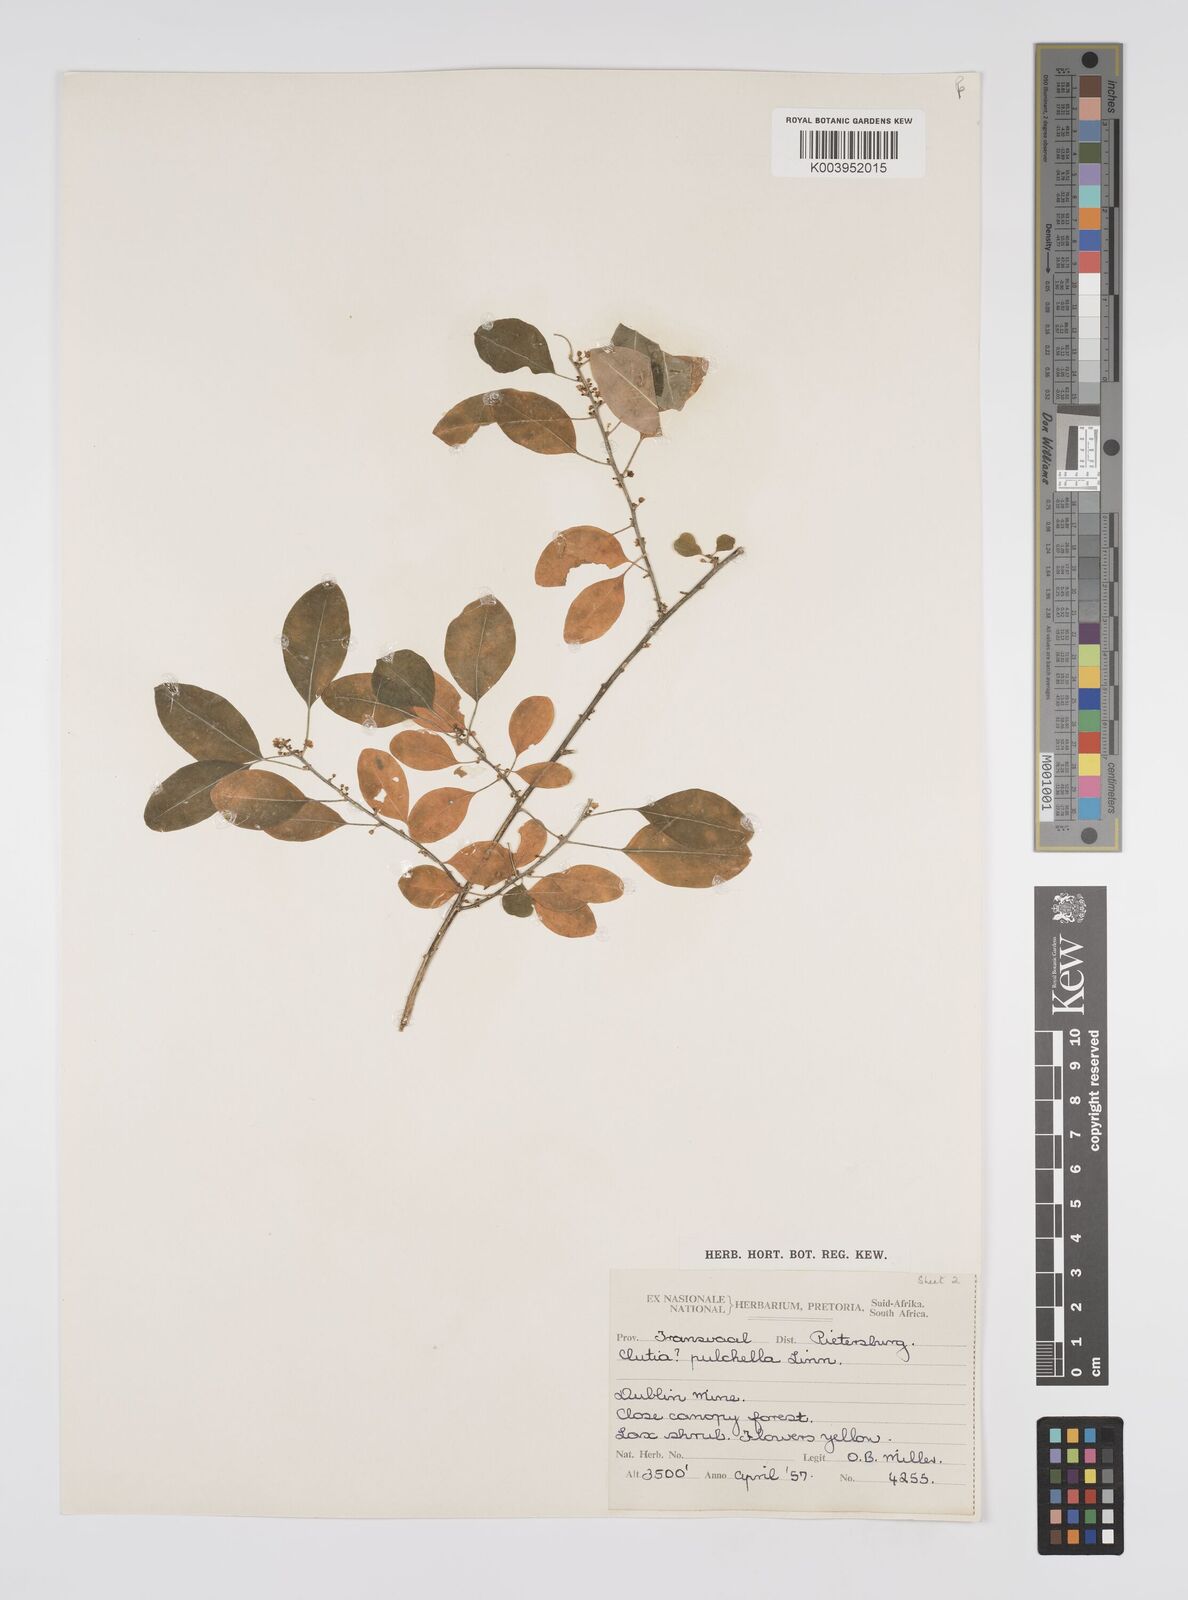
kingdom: Plantae
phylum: Tracheophyta
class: Magnoliopsida
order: Malpighiales
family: Peraceae
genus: Clutia
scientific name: Clutia pulchella
